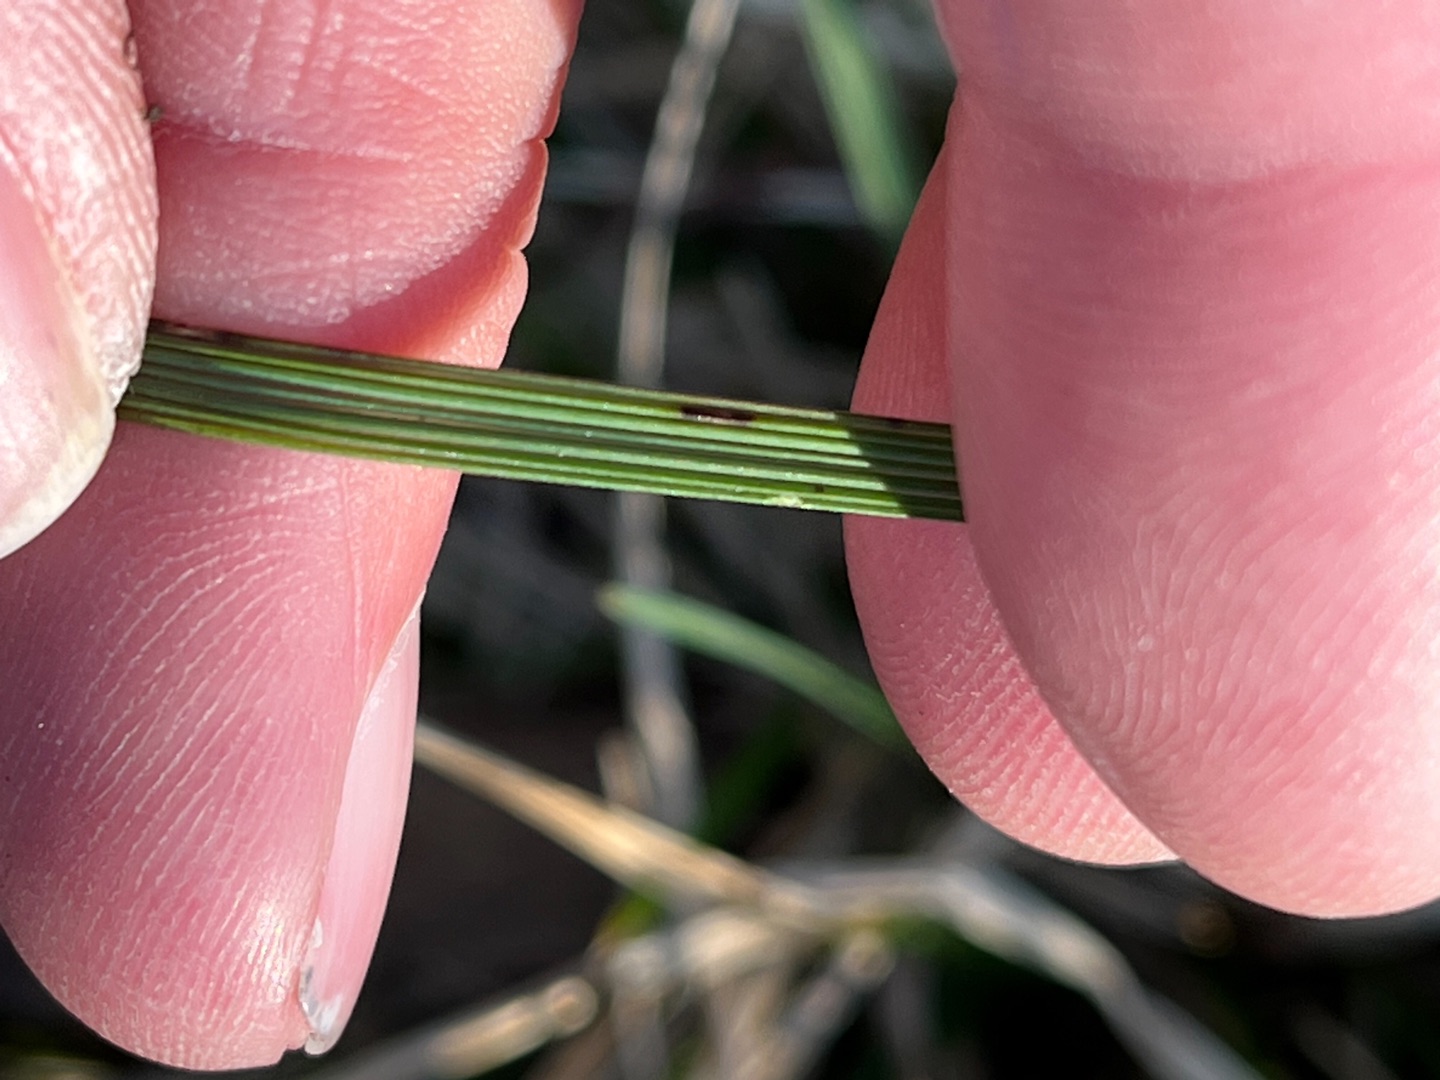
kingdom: Plantae
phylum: Tracheophyta
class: Liliopsida
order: Poales
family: Poaceae
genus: Deschampsia
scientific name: Deschampsia cespitosa
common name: Mose-bunke
